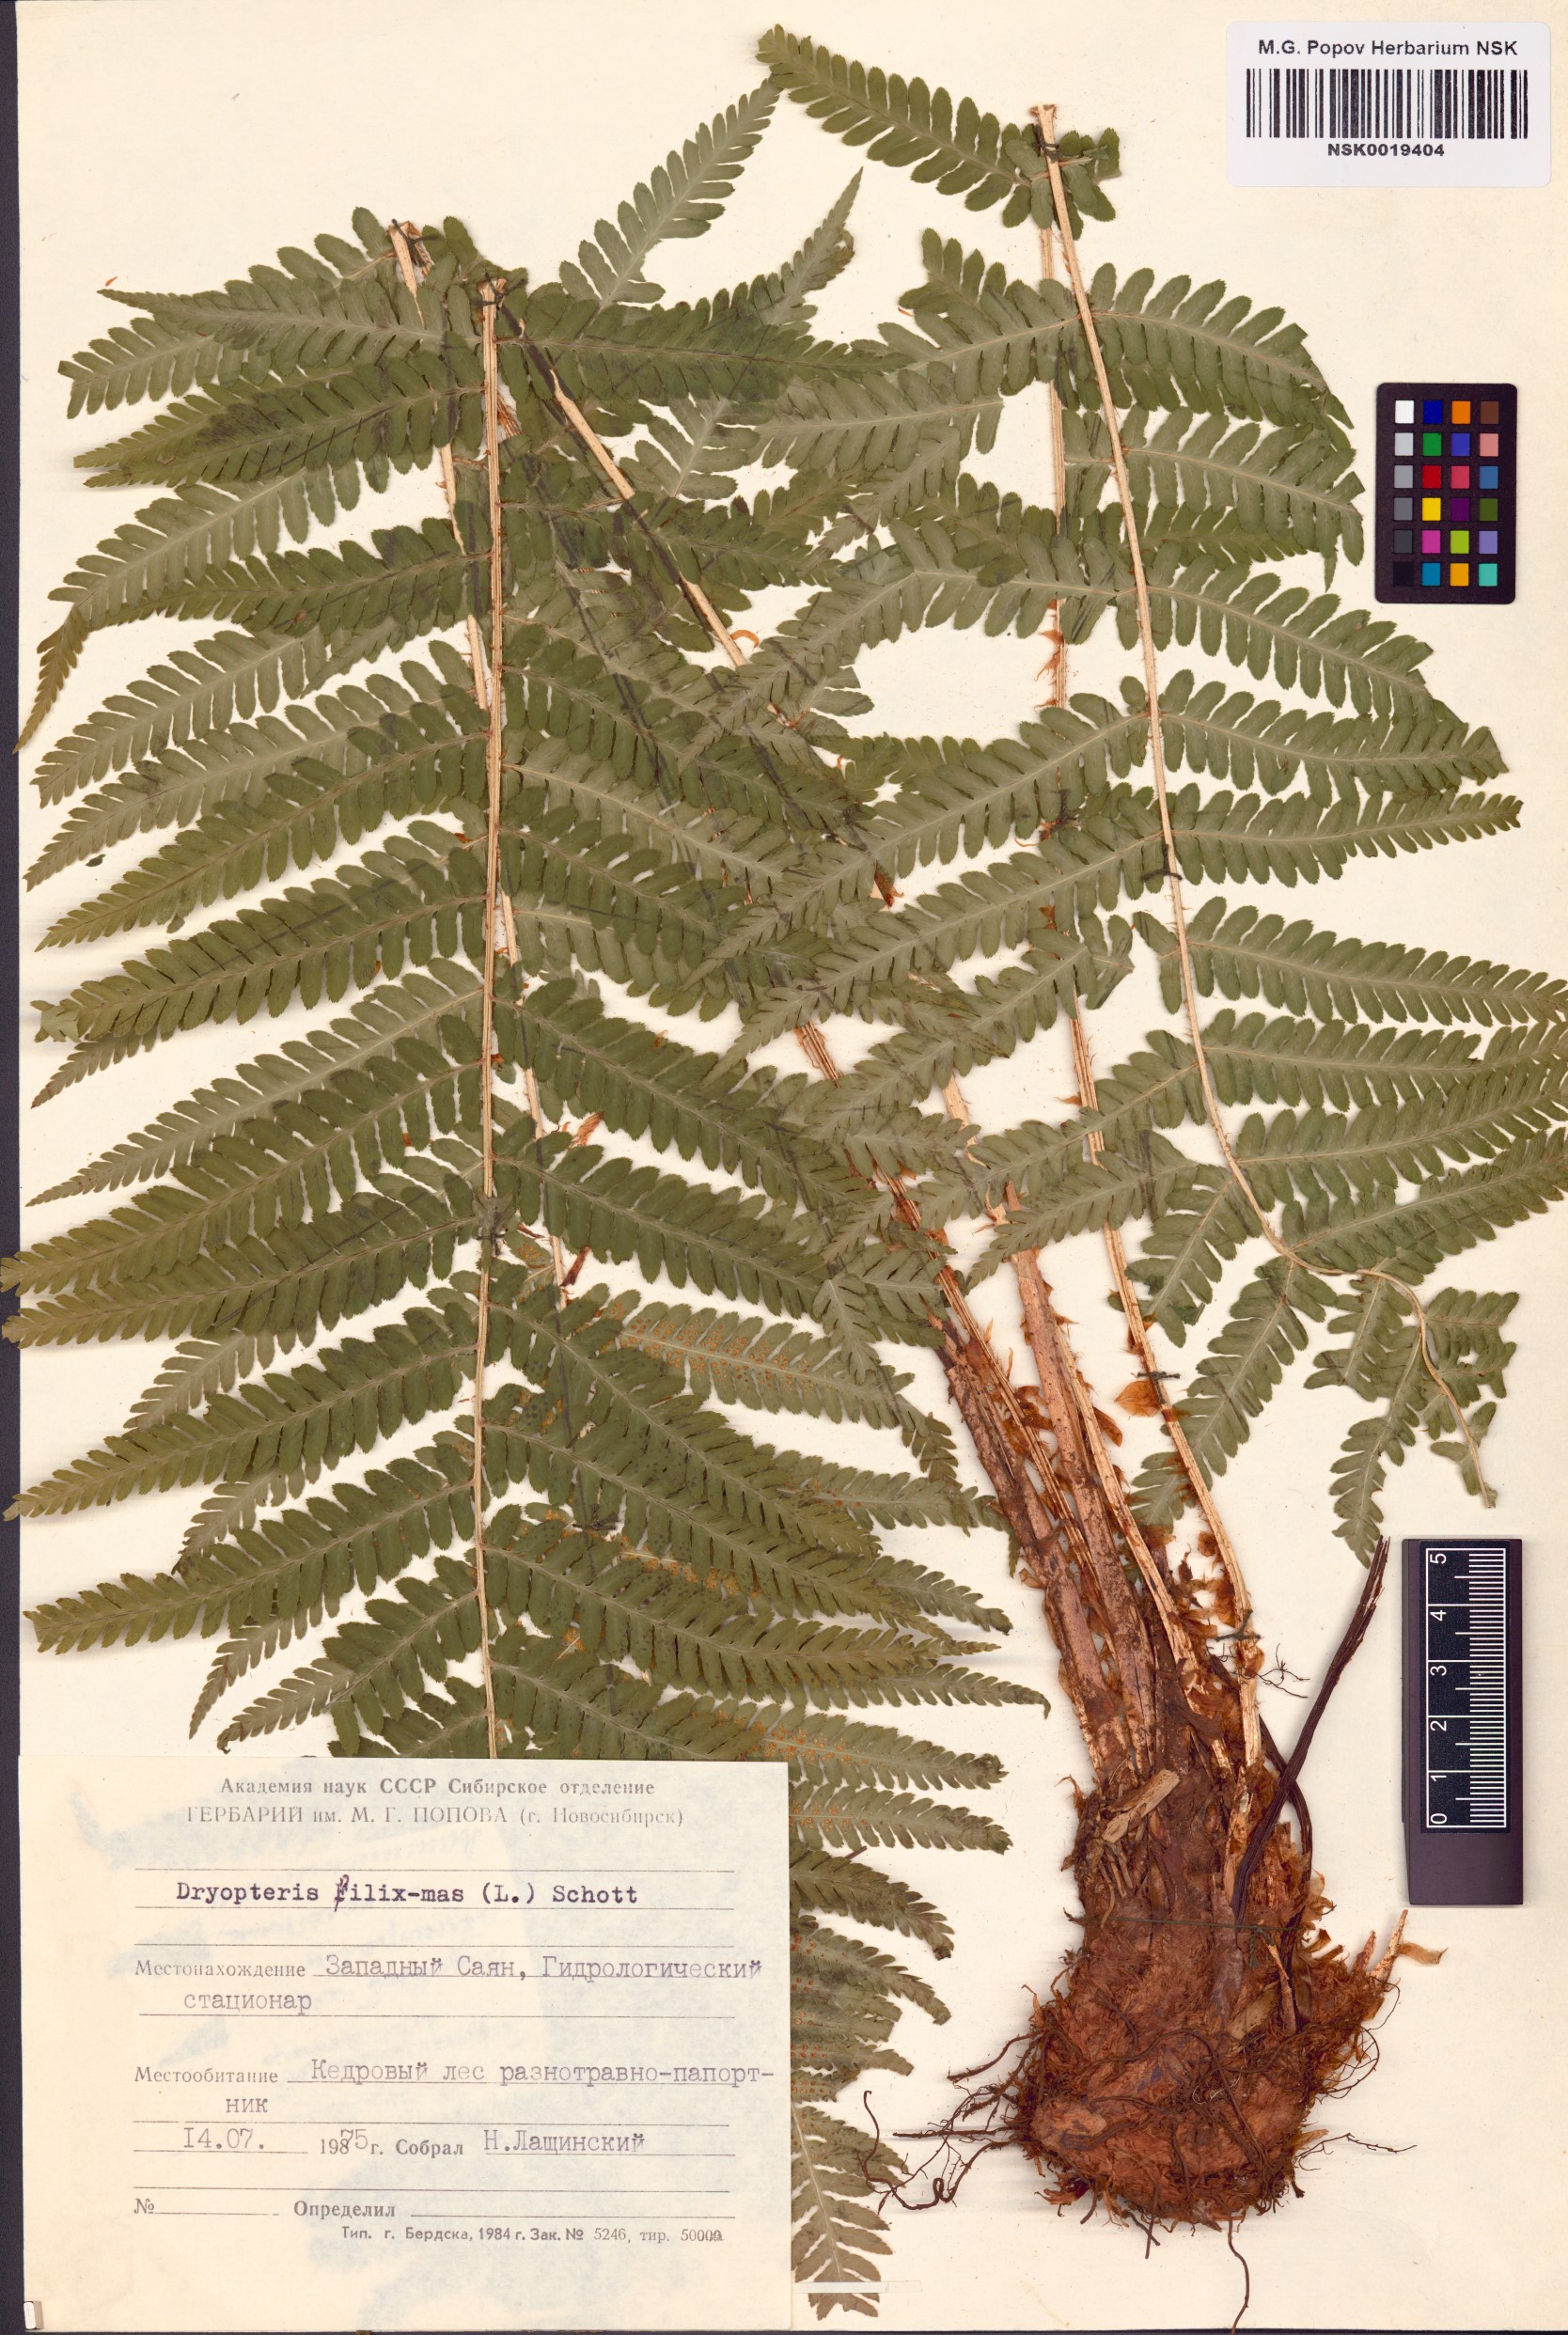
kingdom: Plantae
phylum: Tracheophyta
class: Polypodiopsida
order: Polypodiales
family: Dryopteridaceae
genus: Dryopteris
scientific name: Dryopteris filix-mas
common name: Male fern
